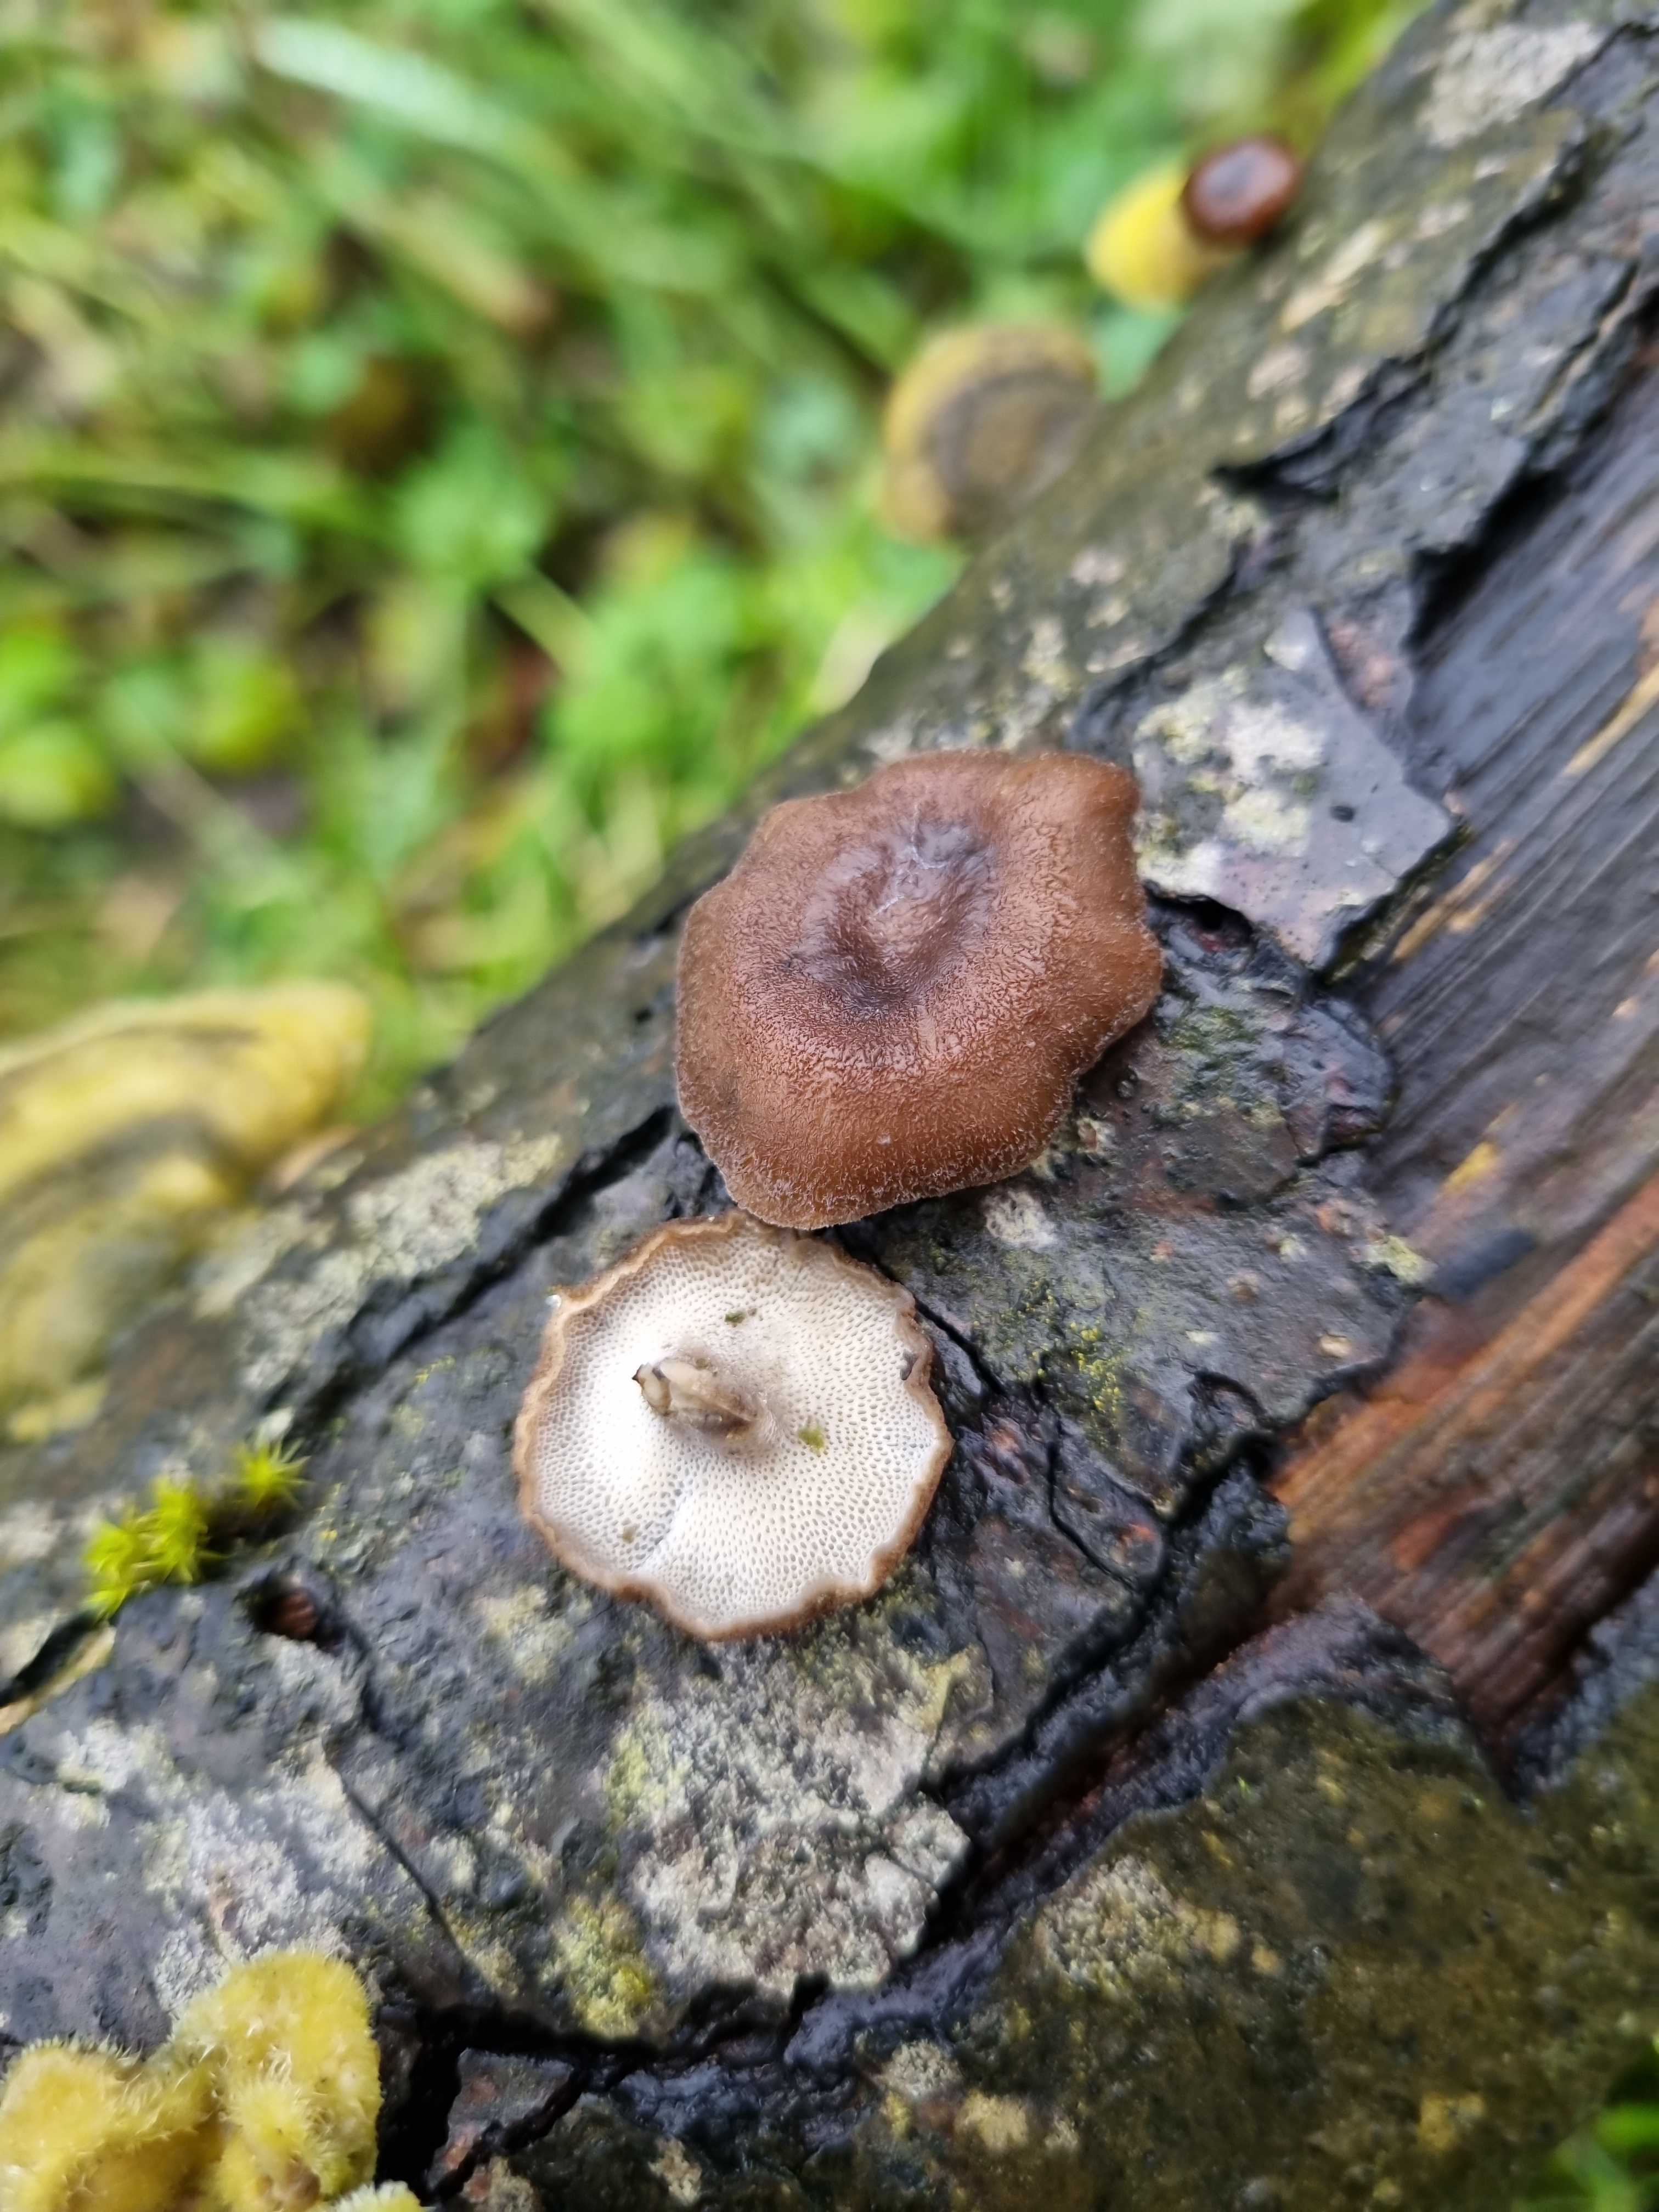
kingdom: Fungi
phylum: Basidiomycota
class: Agaricomycetes
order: Polyporales
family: Polyporaceae
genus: Lentinus
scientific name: Lentinus brumalis
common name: vinter-stilkporesvamp
